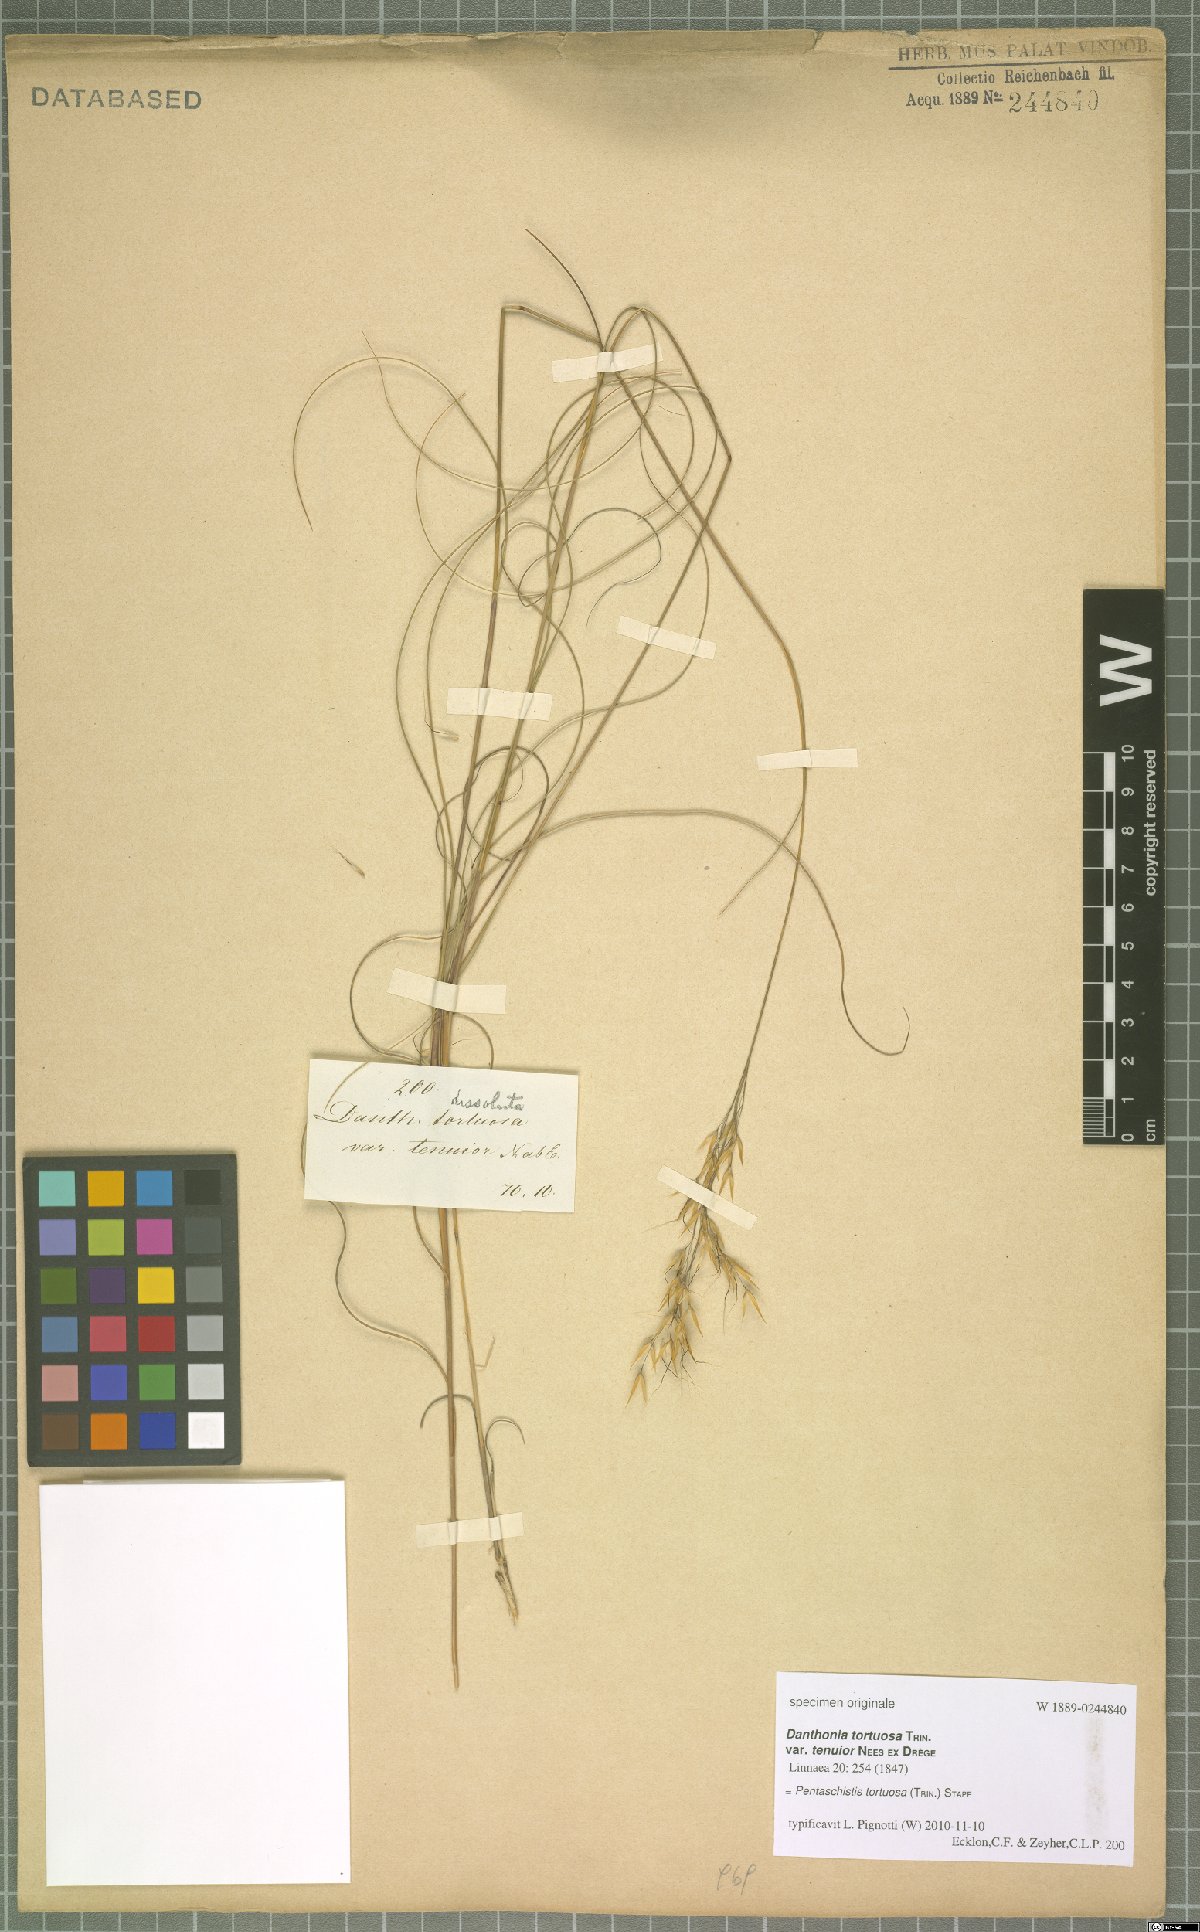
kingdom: Plantae
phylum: Tracheophyta
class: Liliopsida
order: Poales
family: Poaceae
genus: Pentameris
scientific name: Pentameris tortuosa
